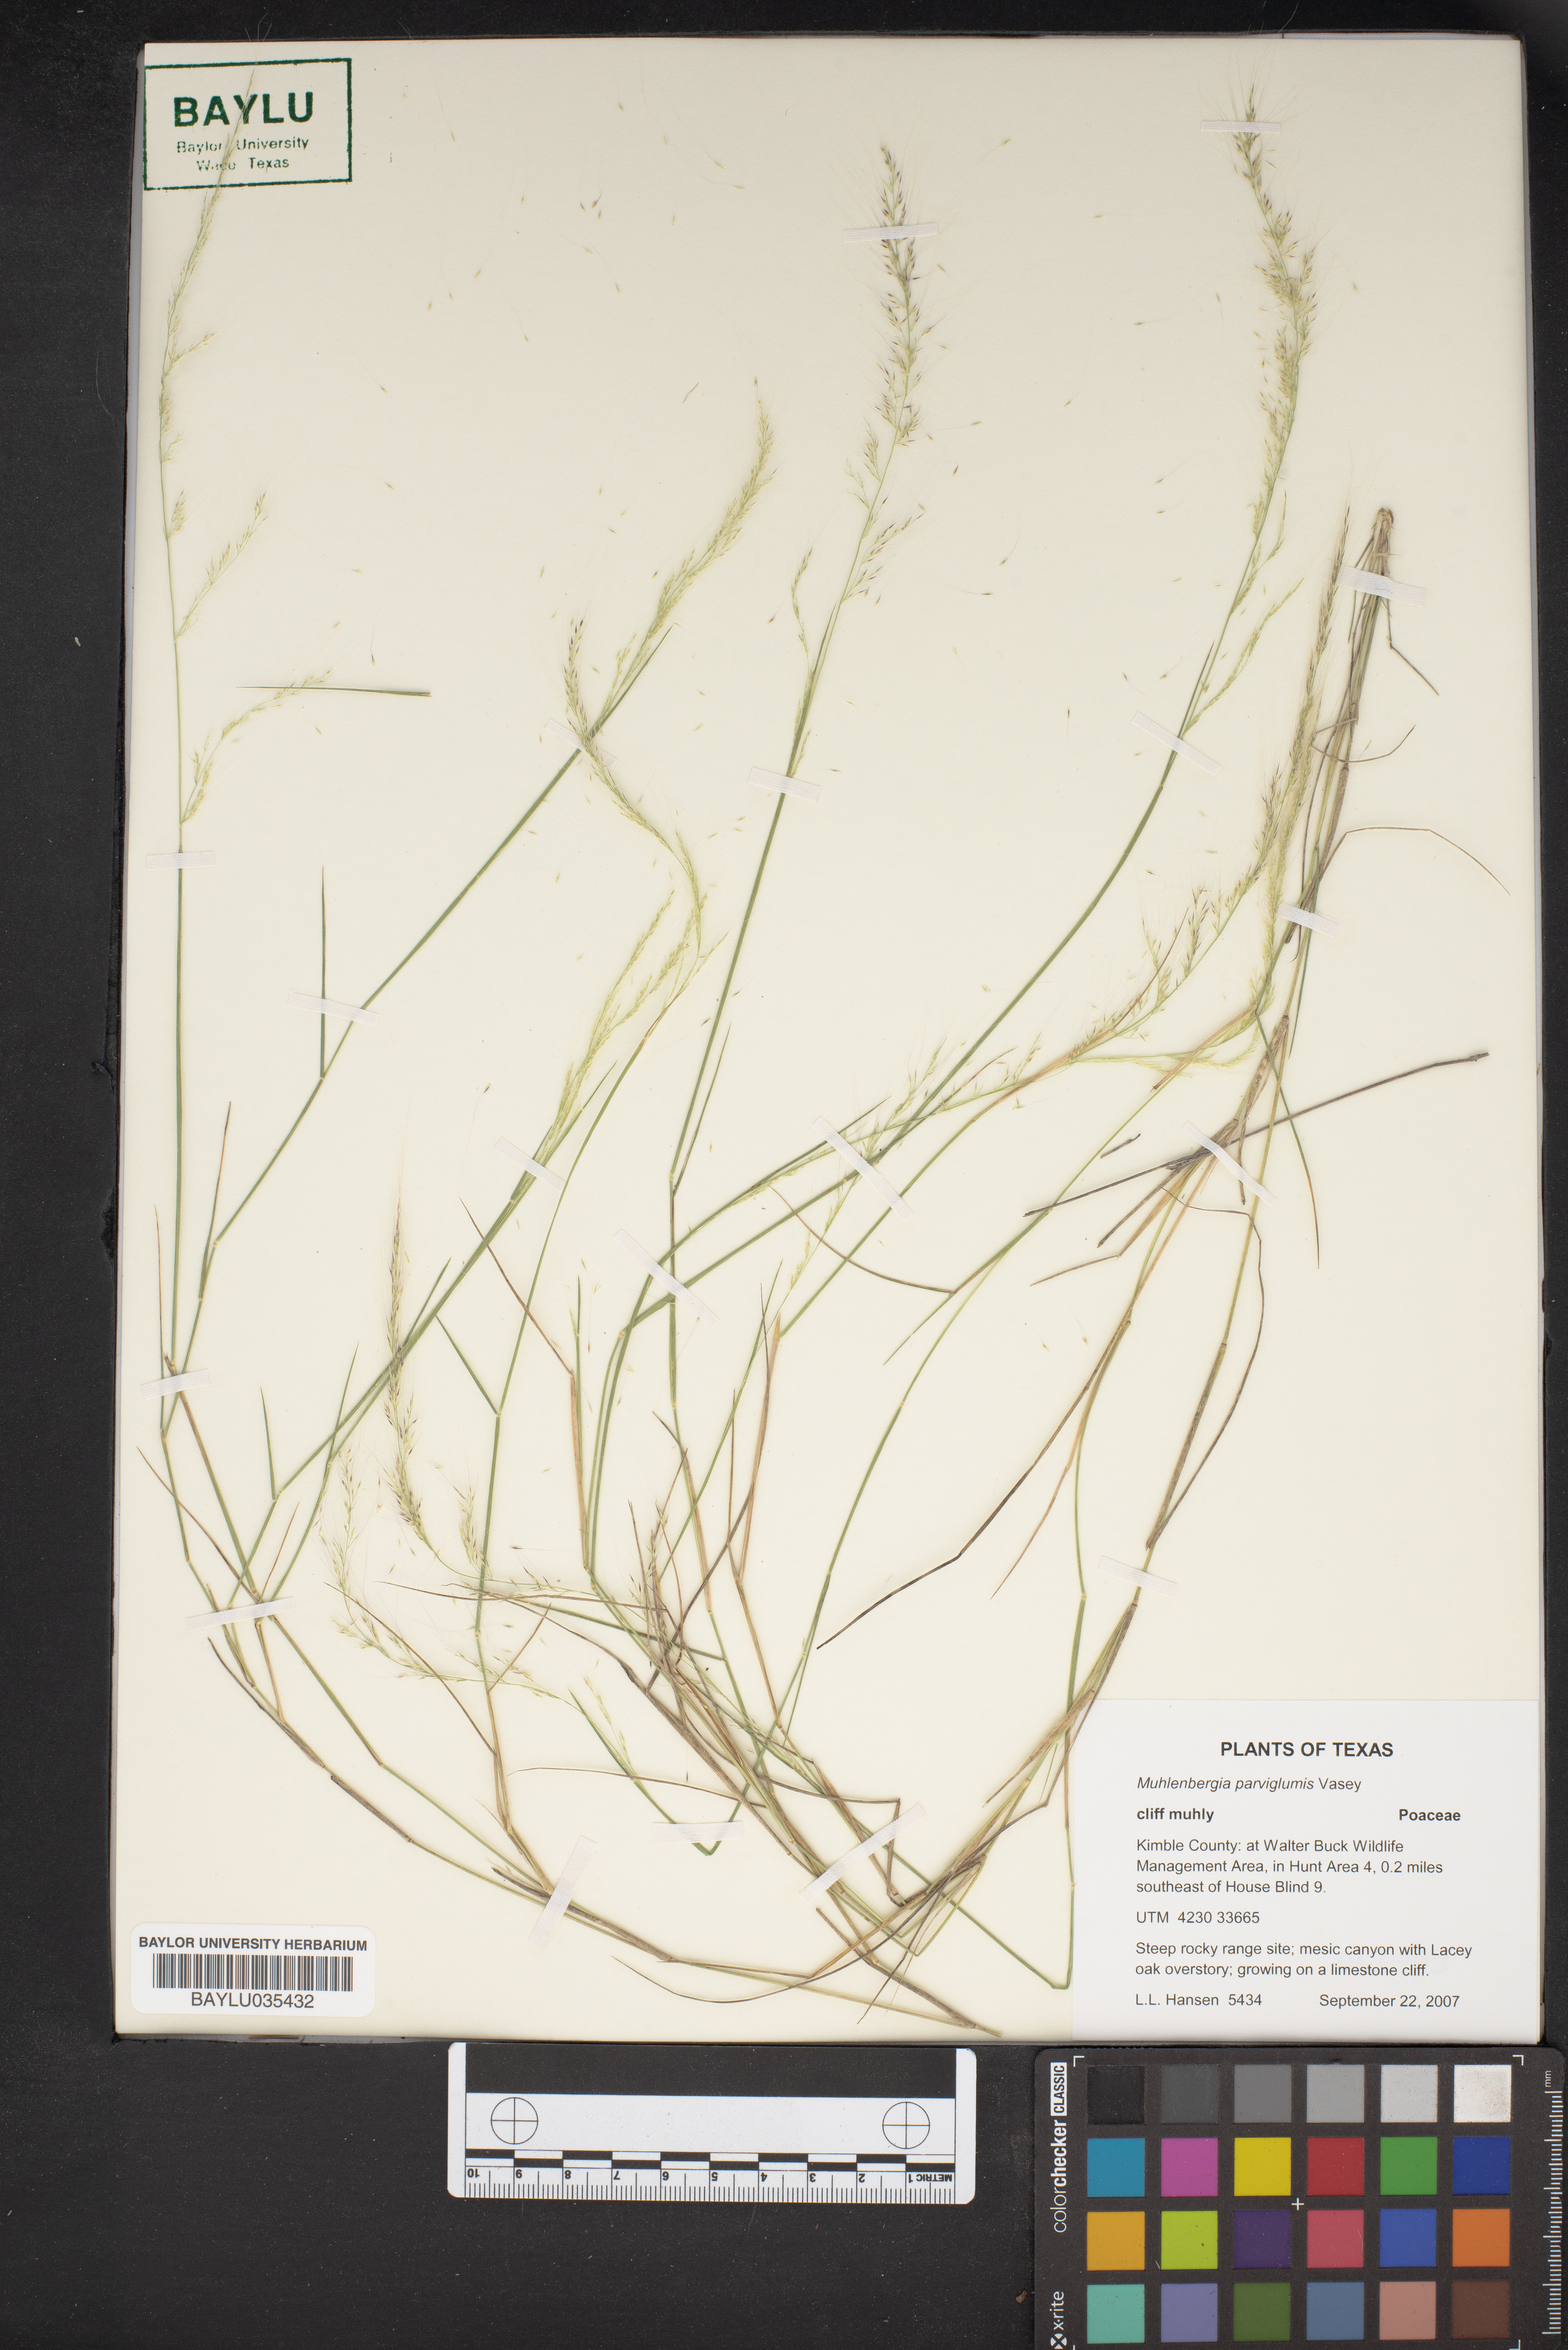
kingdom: Plantae
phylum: Tracheophyta
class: Liliopsida
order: Poales
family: Poaceae
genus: Muhlenbergia
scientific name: Muhlenbergia spiciformis
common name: Longawn muhly
